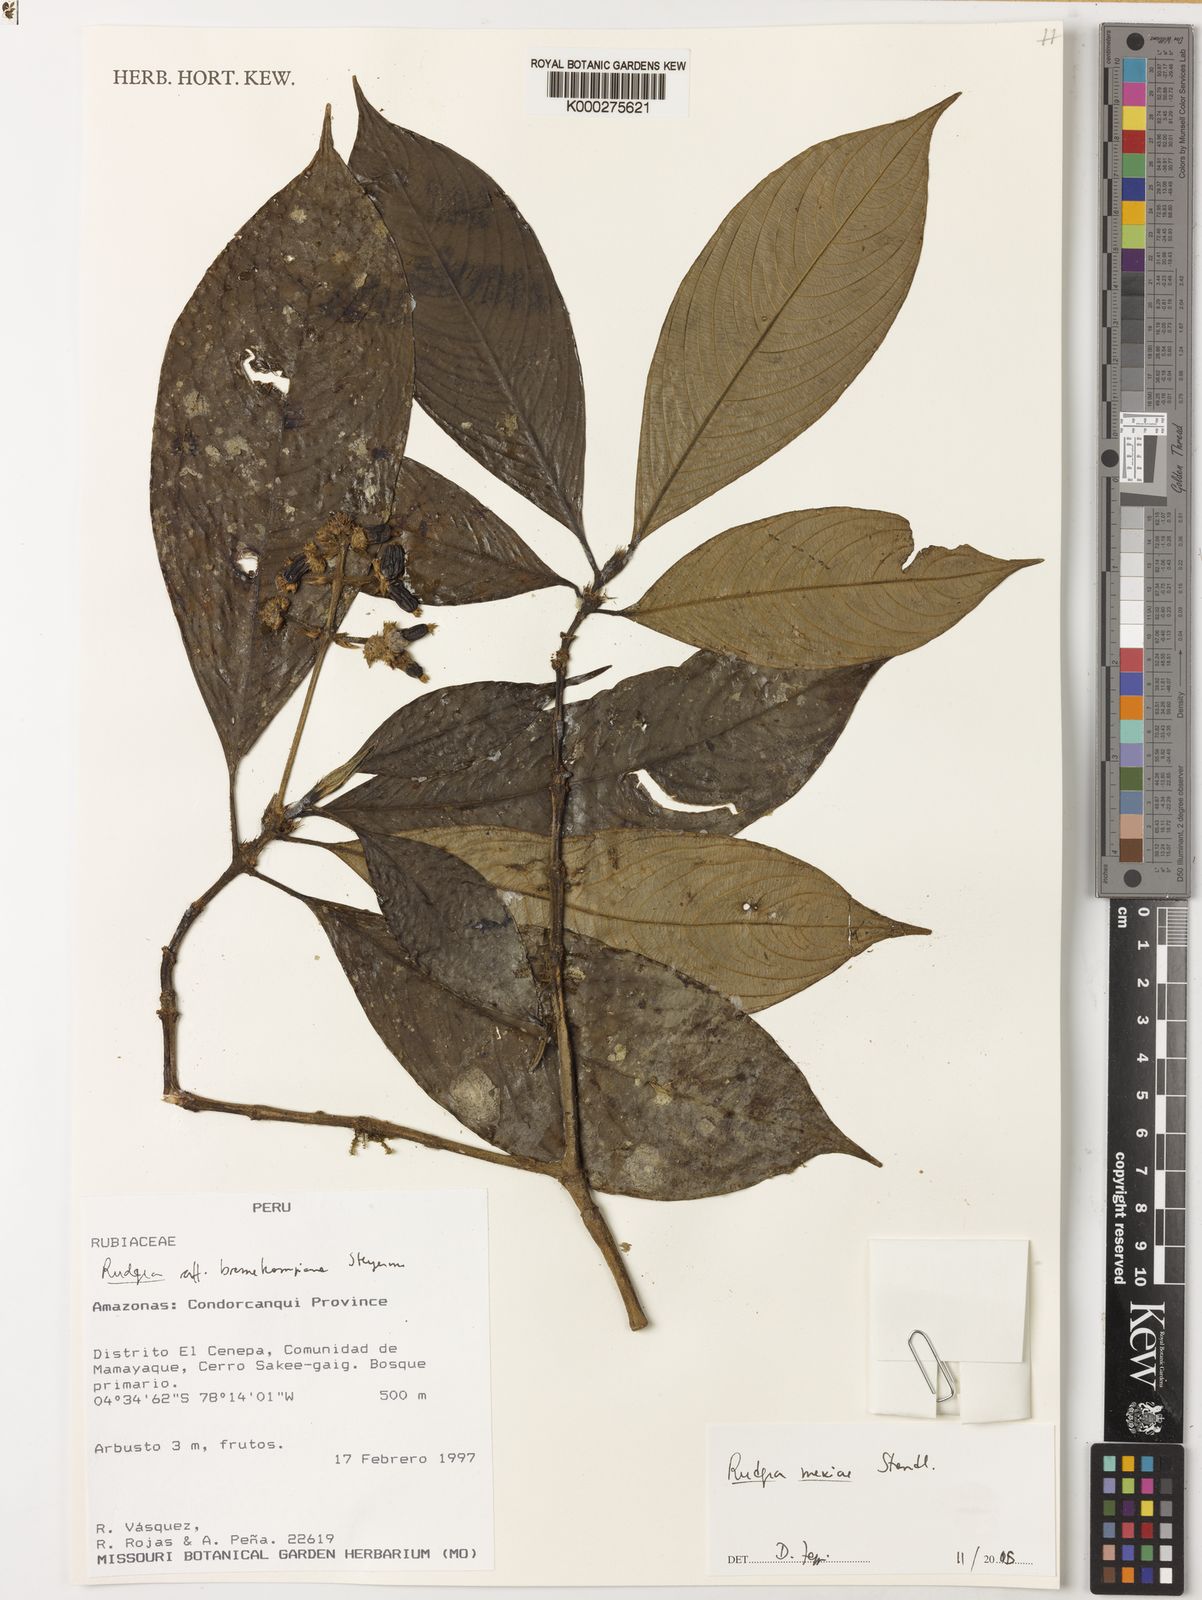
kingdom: Plantae
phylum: Tracheophyta
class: Magnoliopsida
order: Gentianales
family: Rubiaceae
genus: Palicourea
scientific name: Palicourea yneziae
